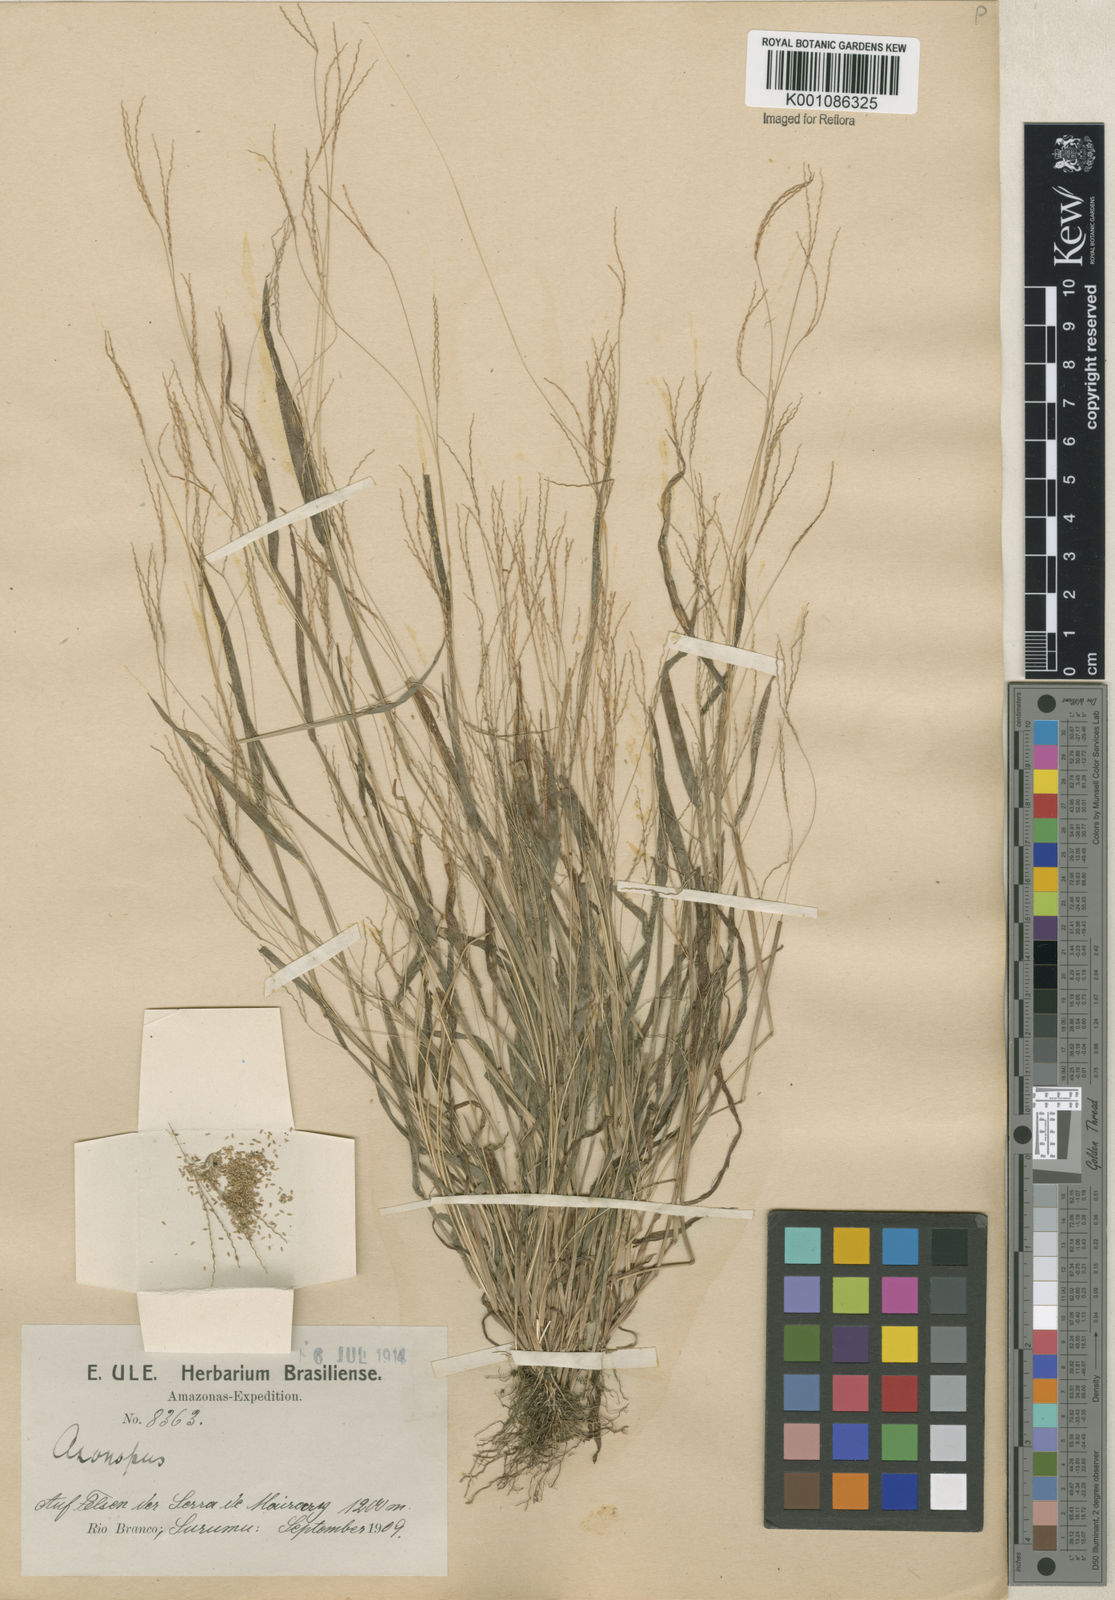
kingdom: Plantae
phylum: Tracheophyta
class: Liliopsida
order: Poales
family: Poaceae
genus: Axonopus
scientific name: Axonopus capillaris
